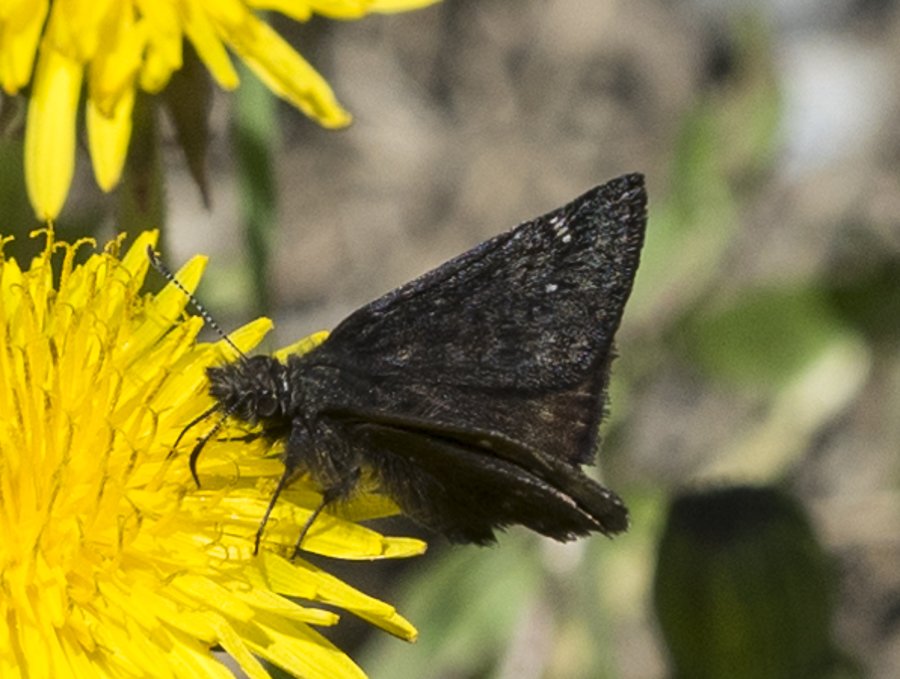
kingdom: Animalia
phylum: Arthropoda
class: Insecta
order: Lepidoptera
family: Hesperiidae
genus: Gesta
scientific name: Gesta
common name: Persius Duskywing
